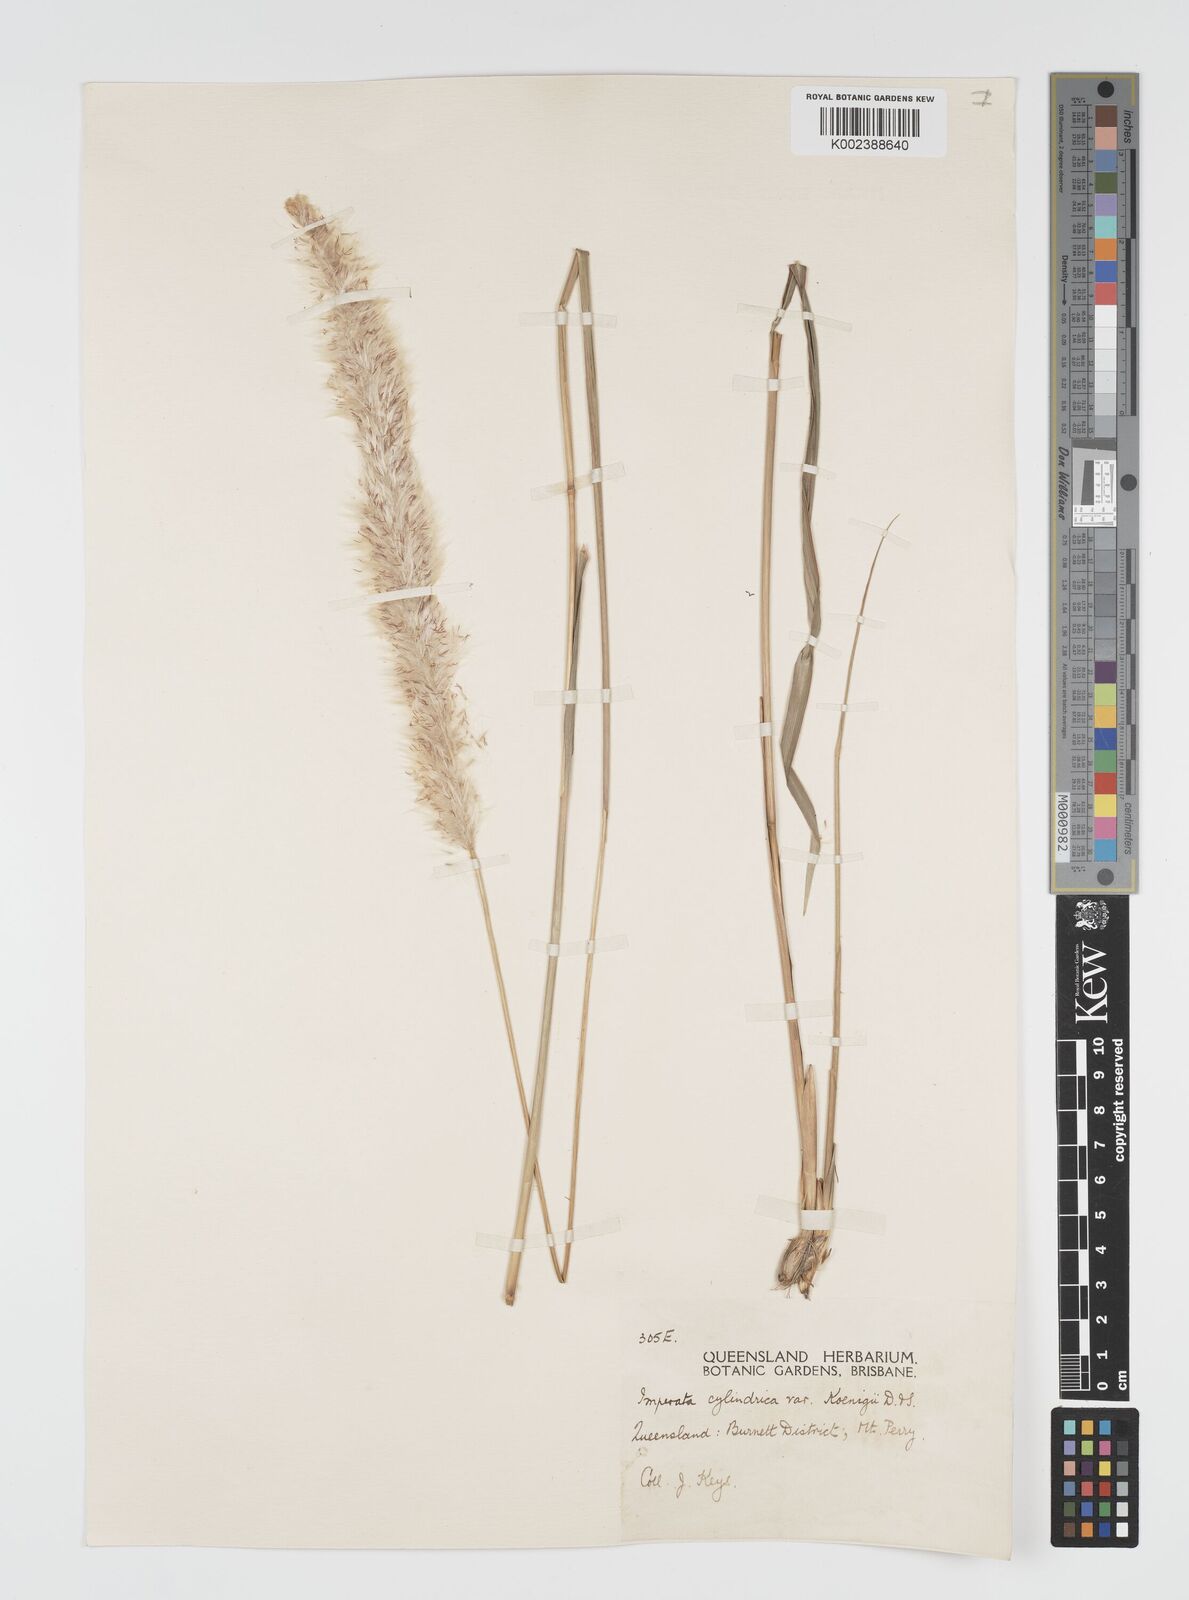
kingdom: Plantae
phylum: Tracheophyta
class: Liliopsida
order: Poales
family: Poaceae
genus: Imperata
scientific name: Imperata cylindrica
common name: Cogongrass
